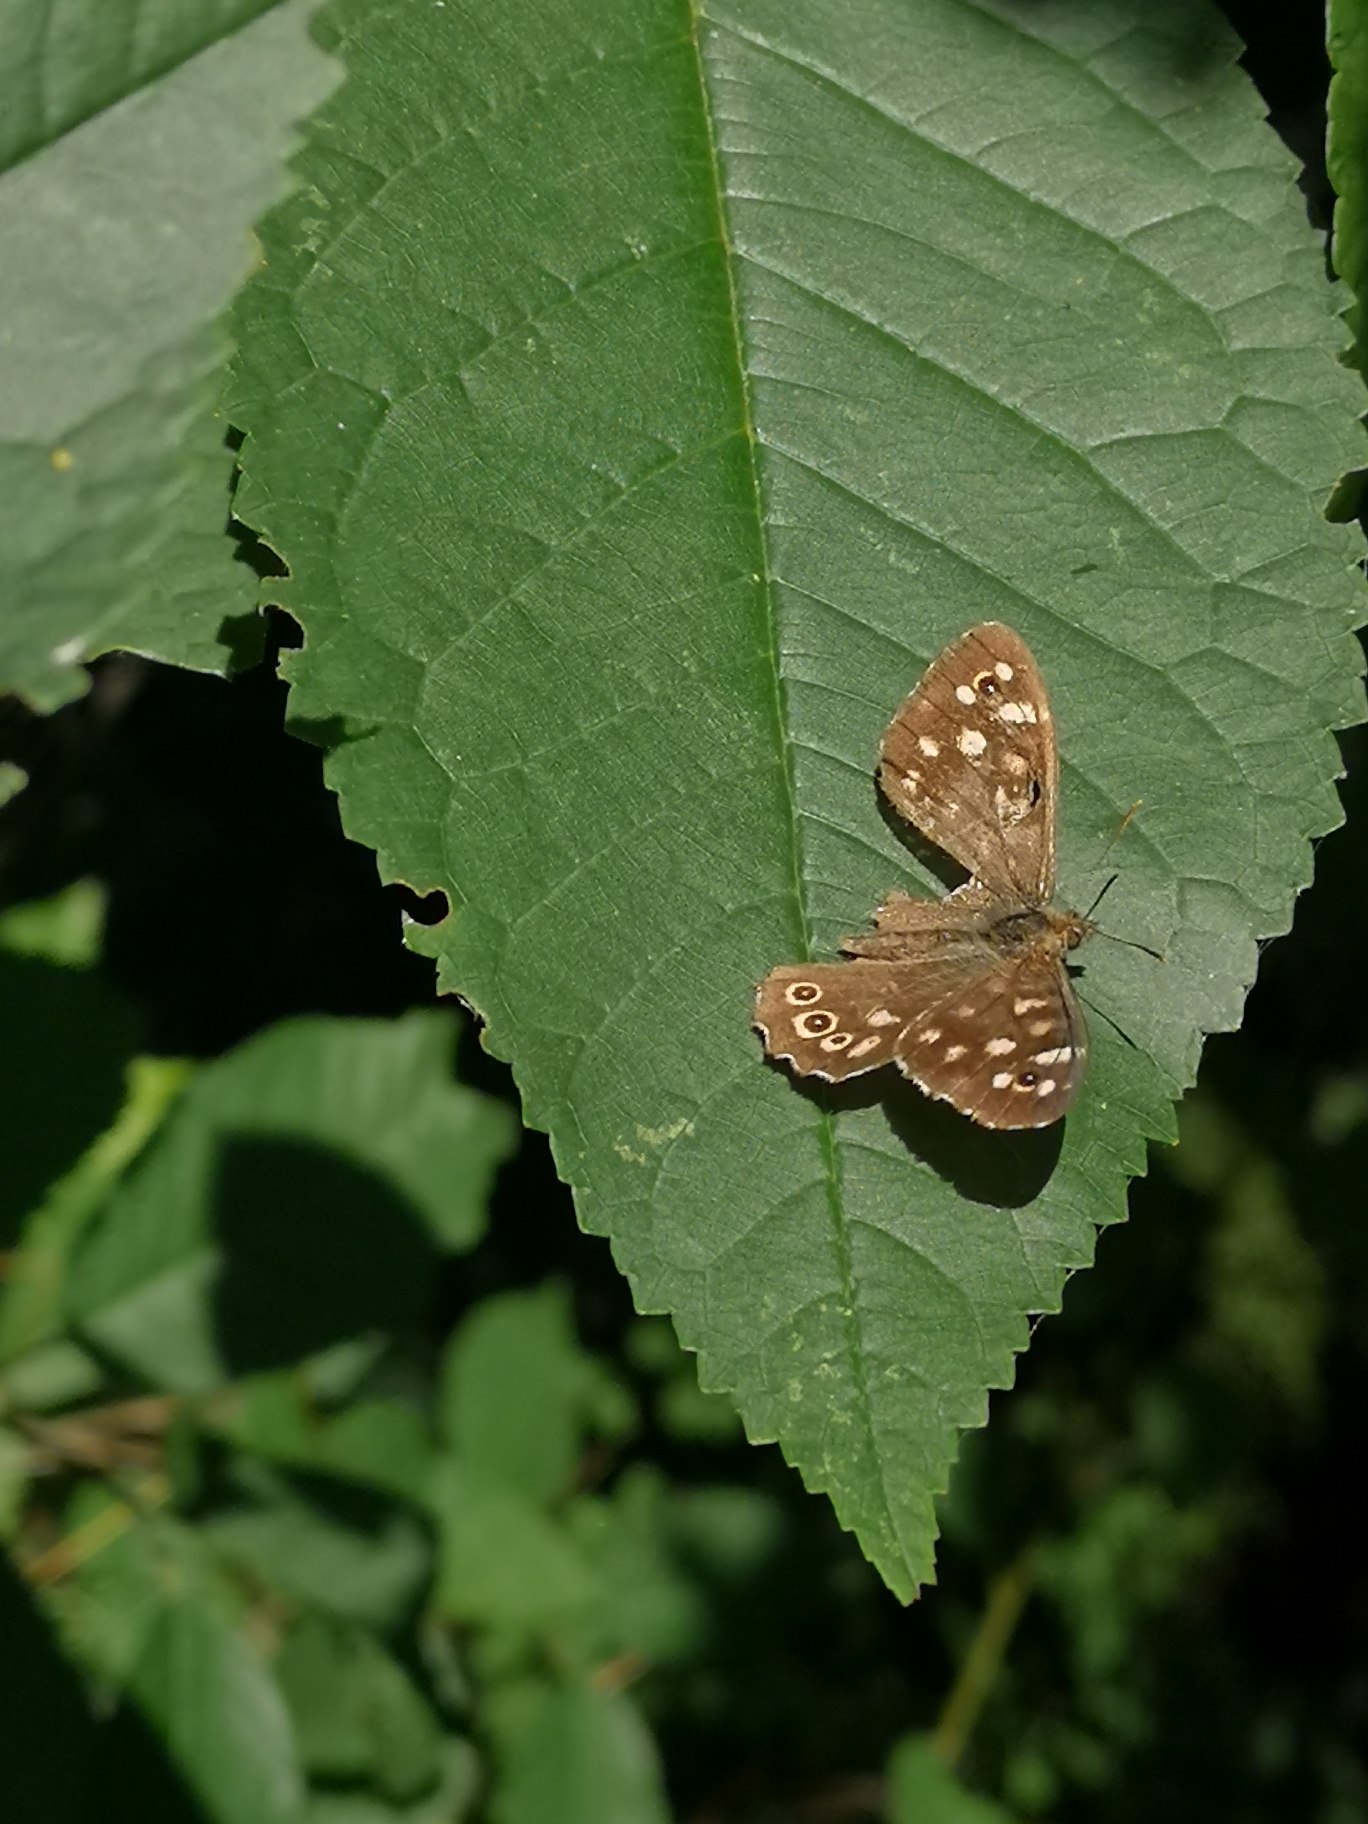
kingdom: Animalia
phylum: Arthropoda
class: Insecta
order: Lepidoptera
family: Nymphalidae
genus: Pararge
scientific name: Pararge aegeria
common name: Skovrandøje
